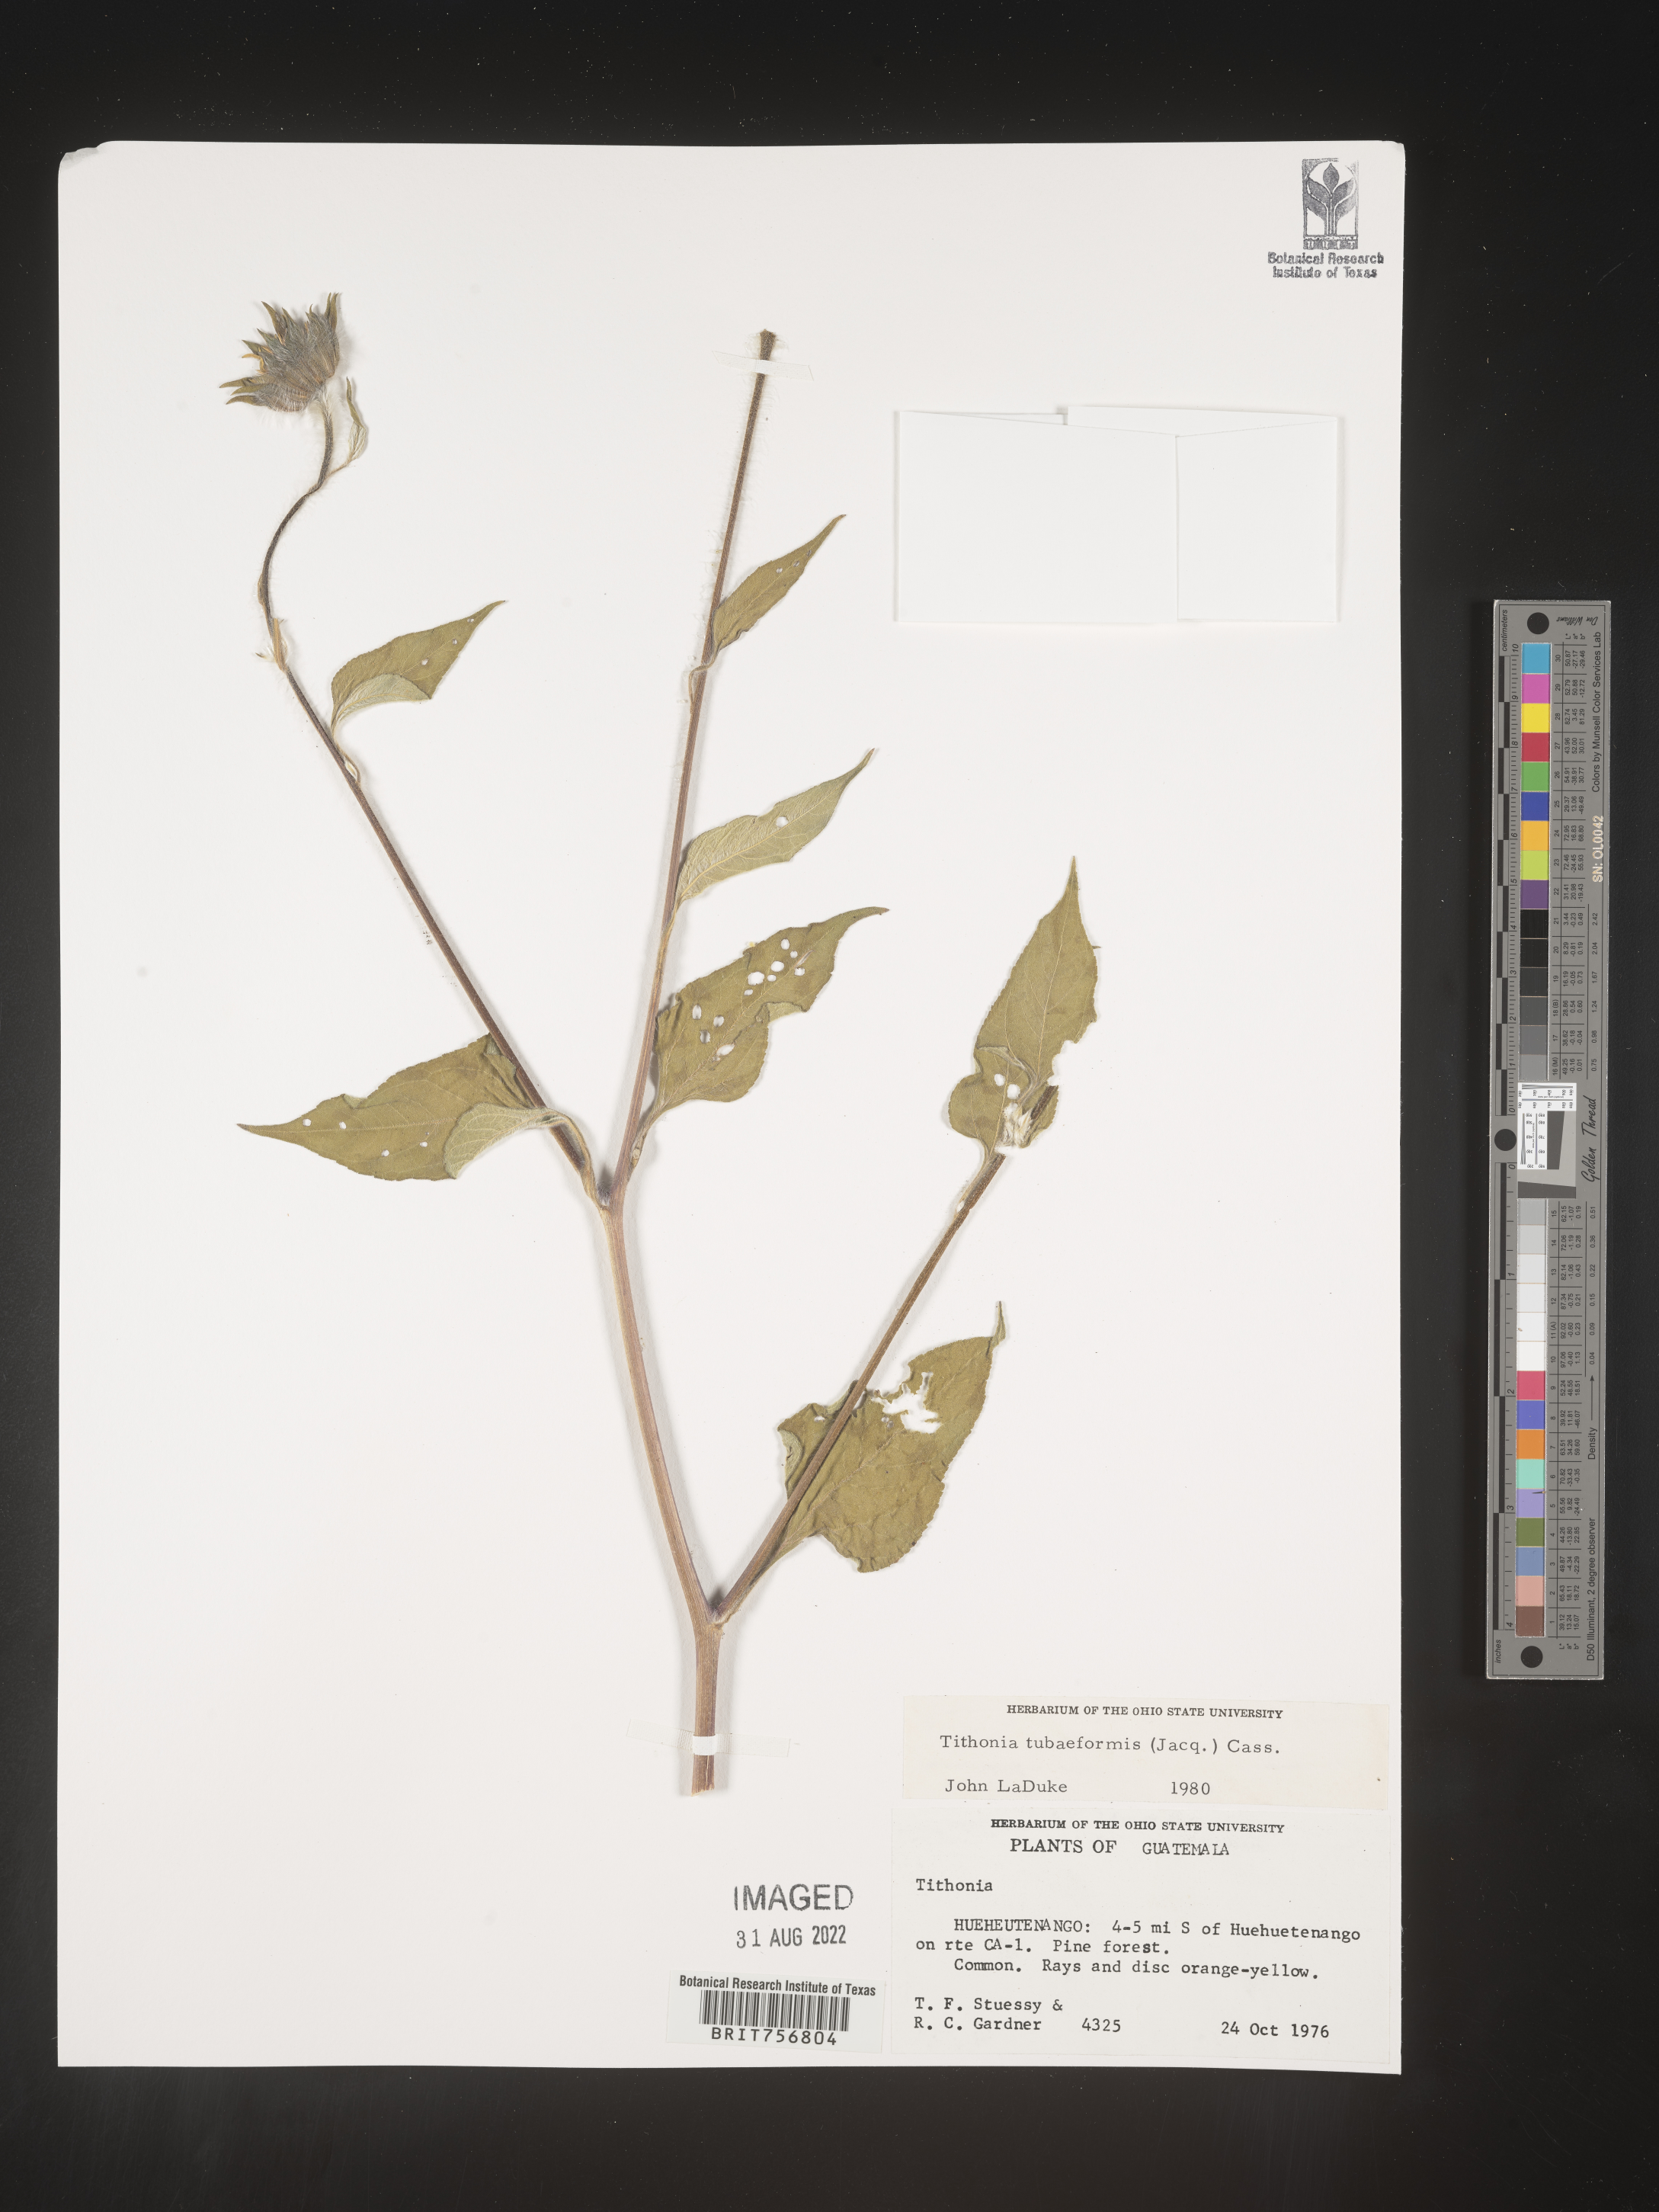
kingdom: Plantae
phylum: Tracheophyta
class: Magnoliopsida
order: Asterales
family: Asteraceae
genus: Tithonia
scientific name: Tithonia
